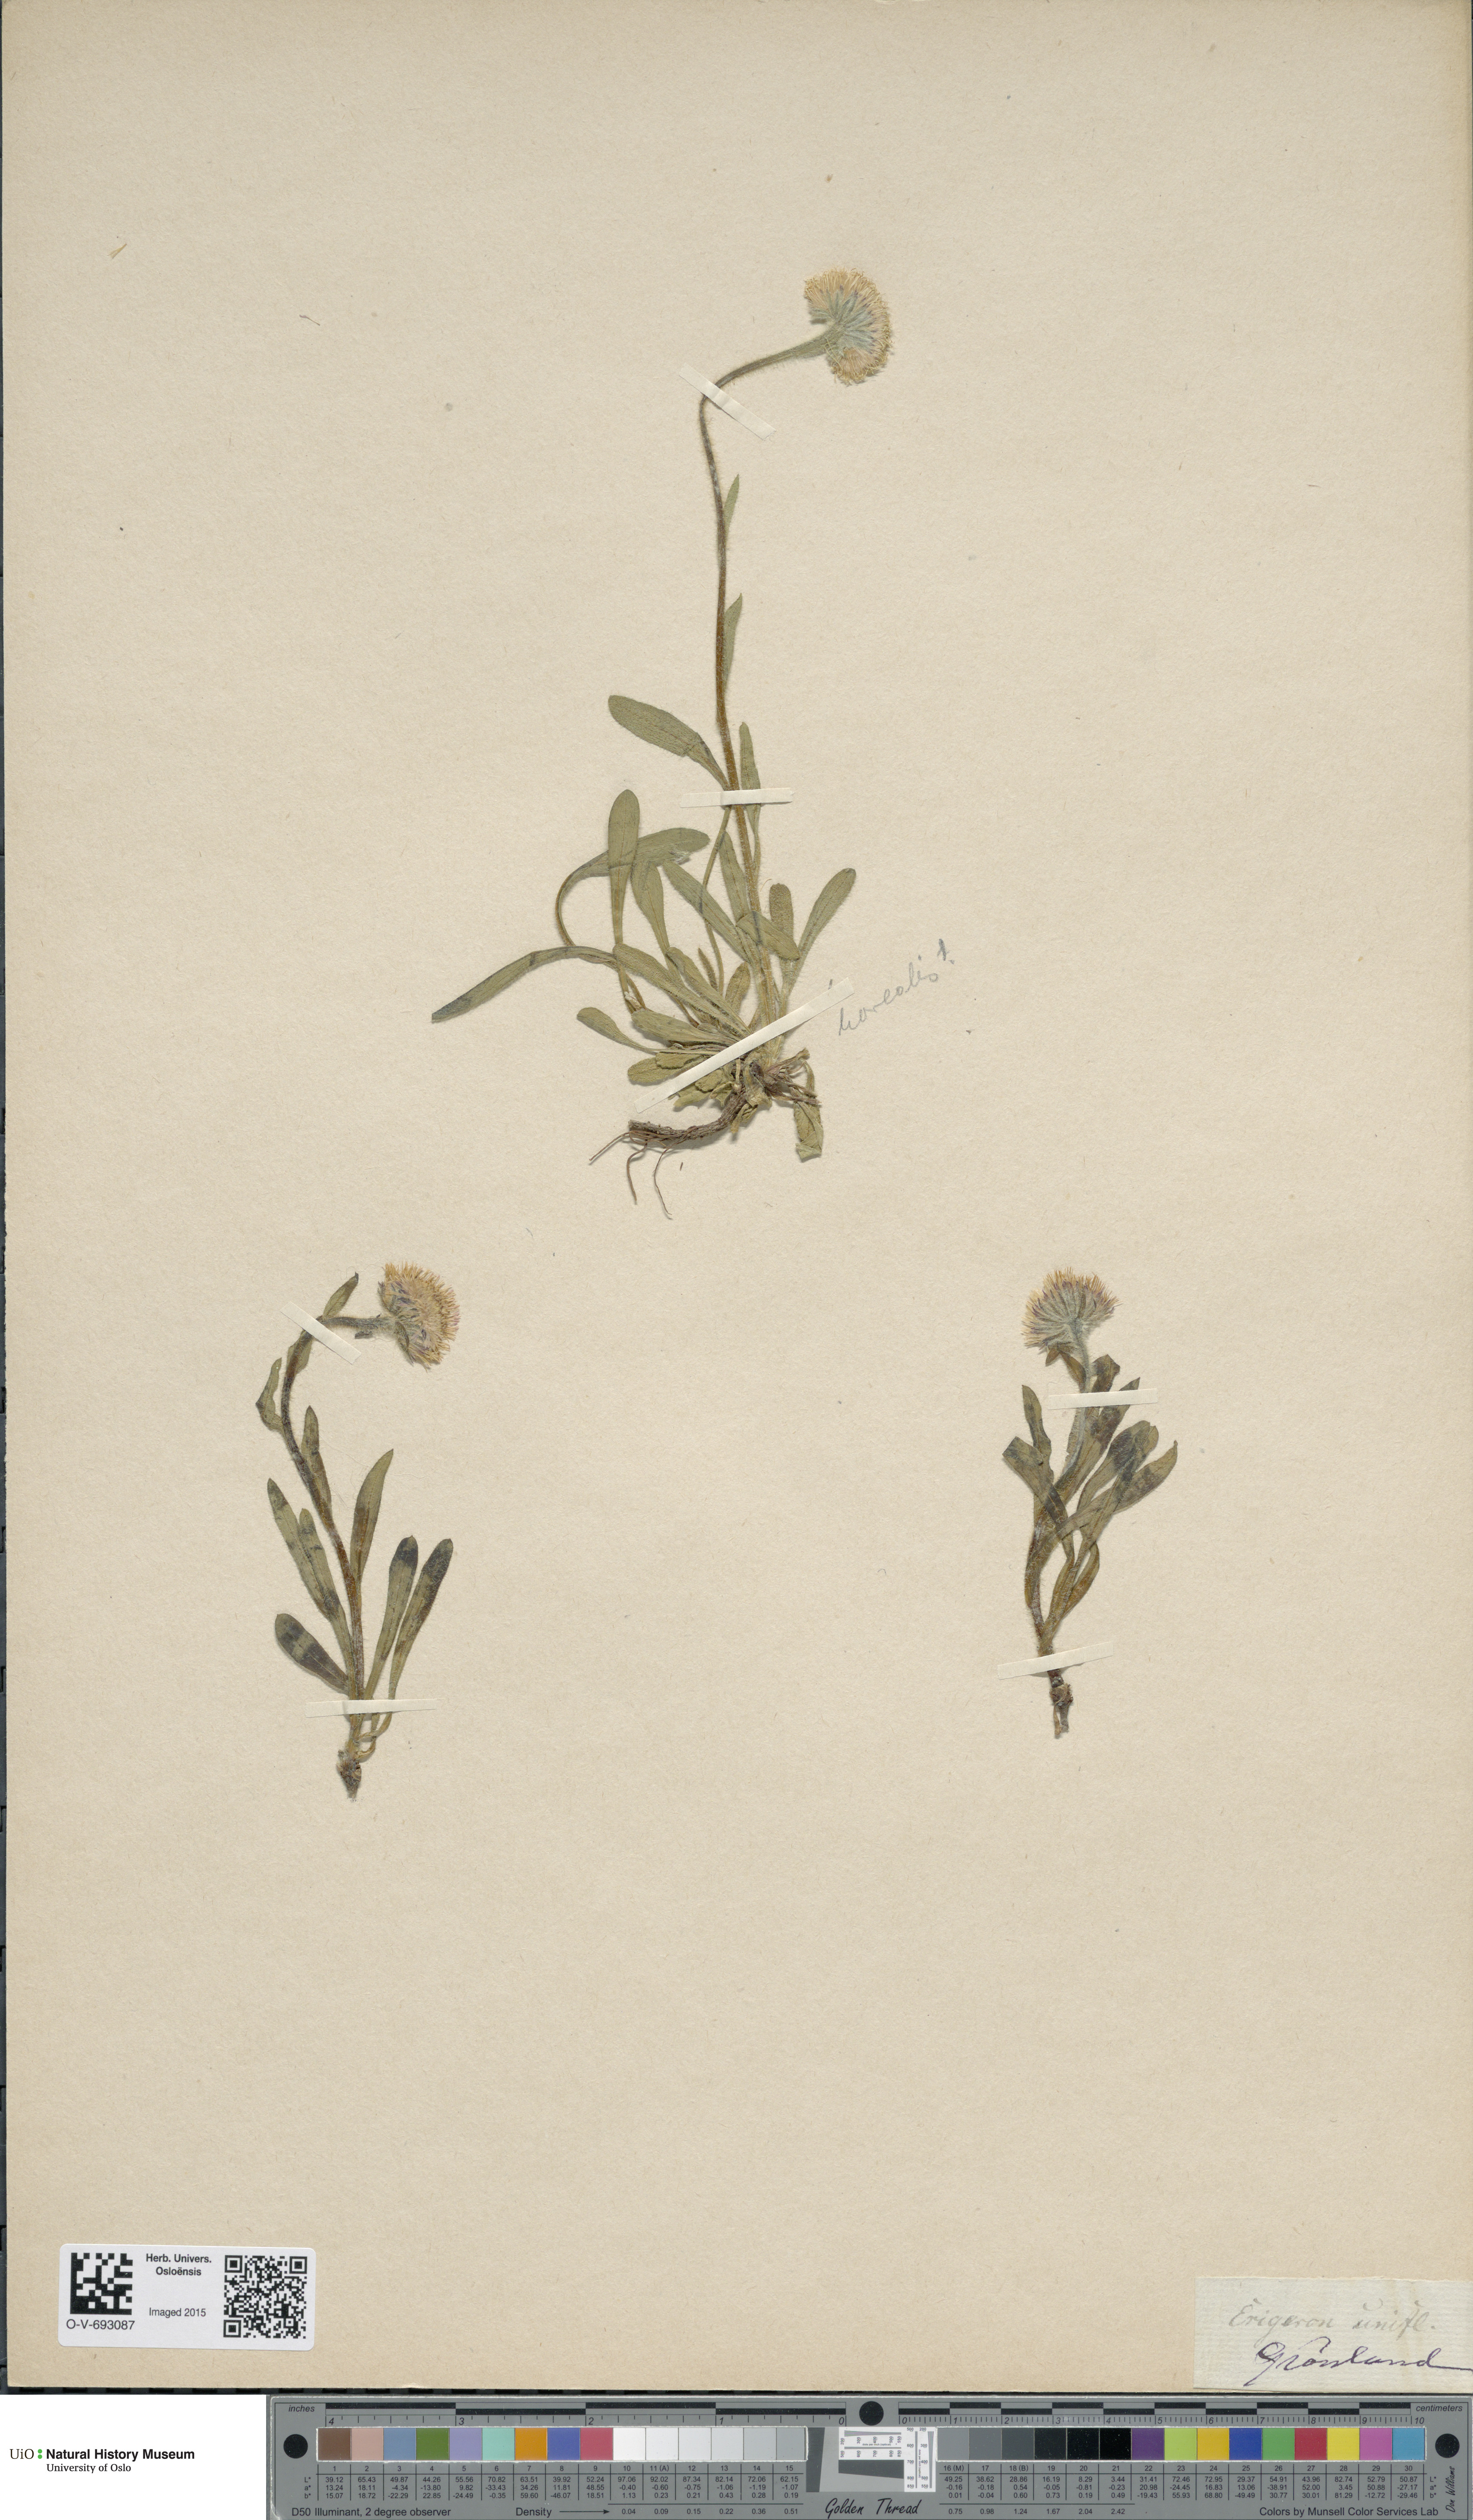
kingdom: Plantae
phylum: Tracheophyta
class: Magnoliopsida
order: Asterales
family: Asteraceae
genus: Erigeron
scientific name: Erigeron borealis
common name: Alpine fleabane
